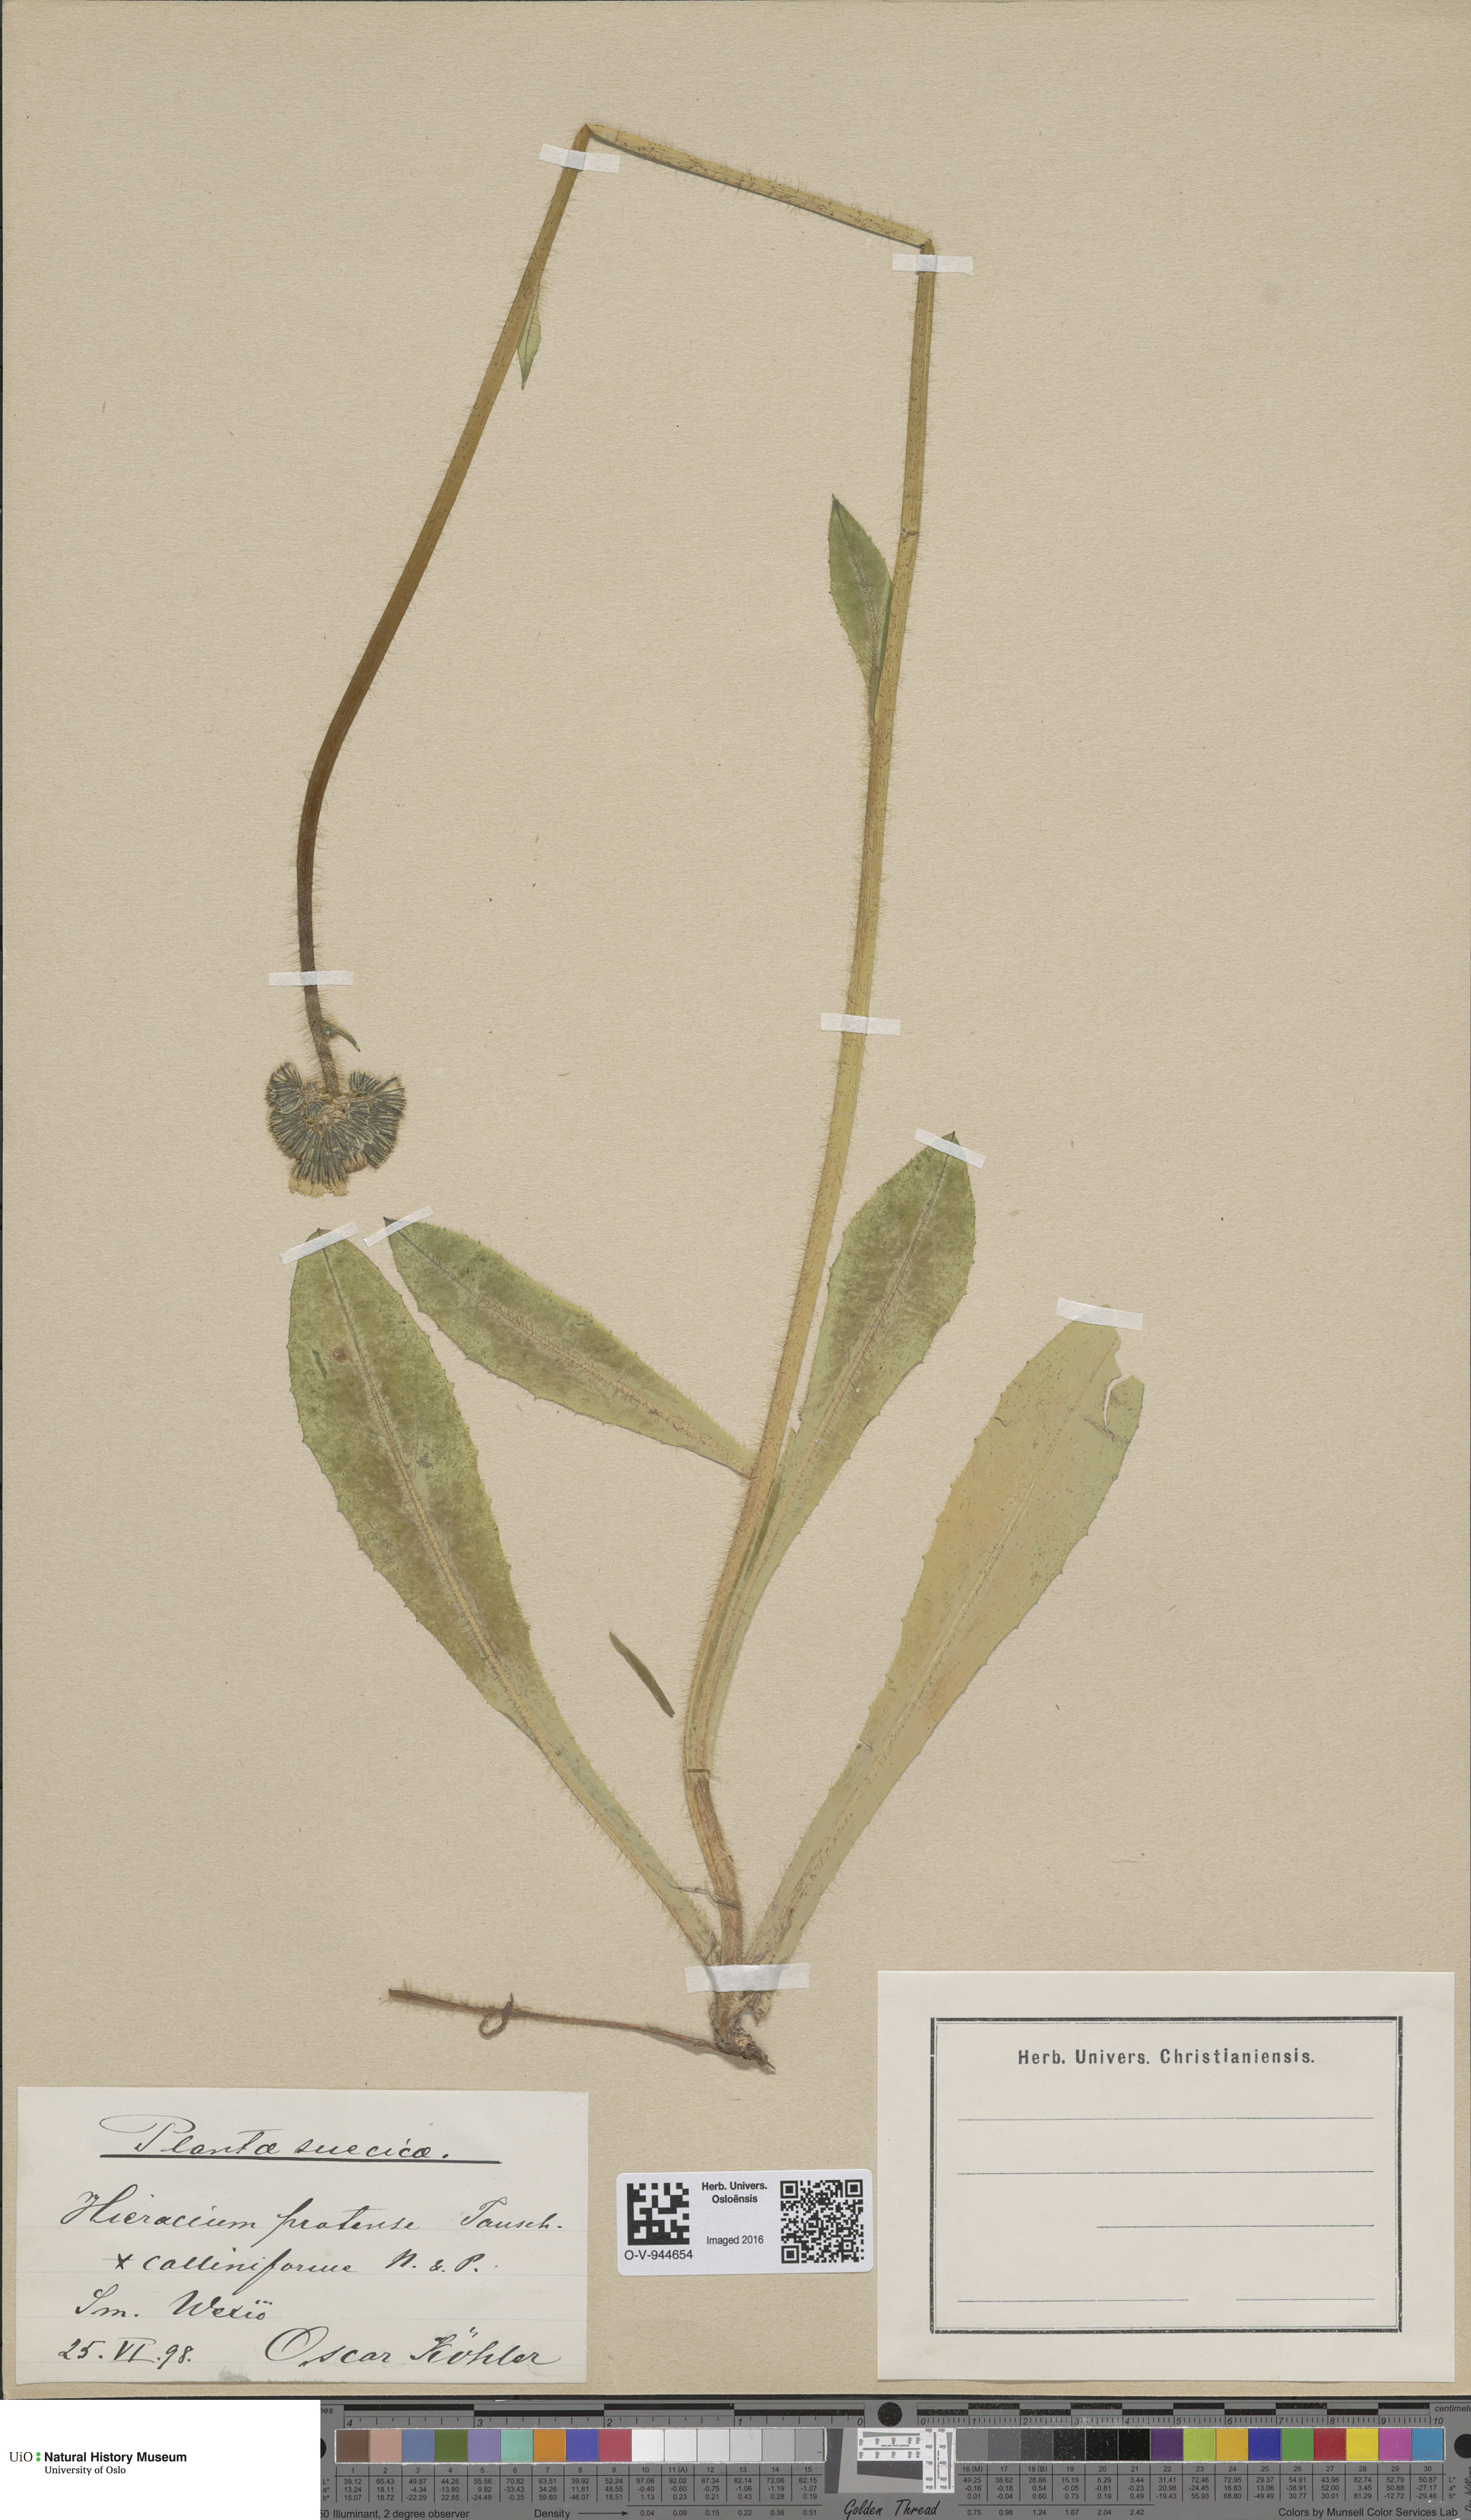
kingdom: Plantae
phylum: Tracheophyta
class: Magnoliopsida
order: Asterales
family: Asteraceae
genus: Pilosella
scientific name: Pilosella caespitosa
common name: Yellow fox-and-cubs
